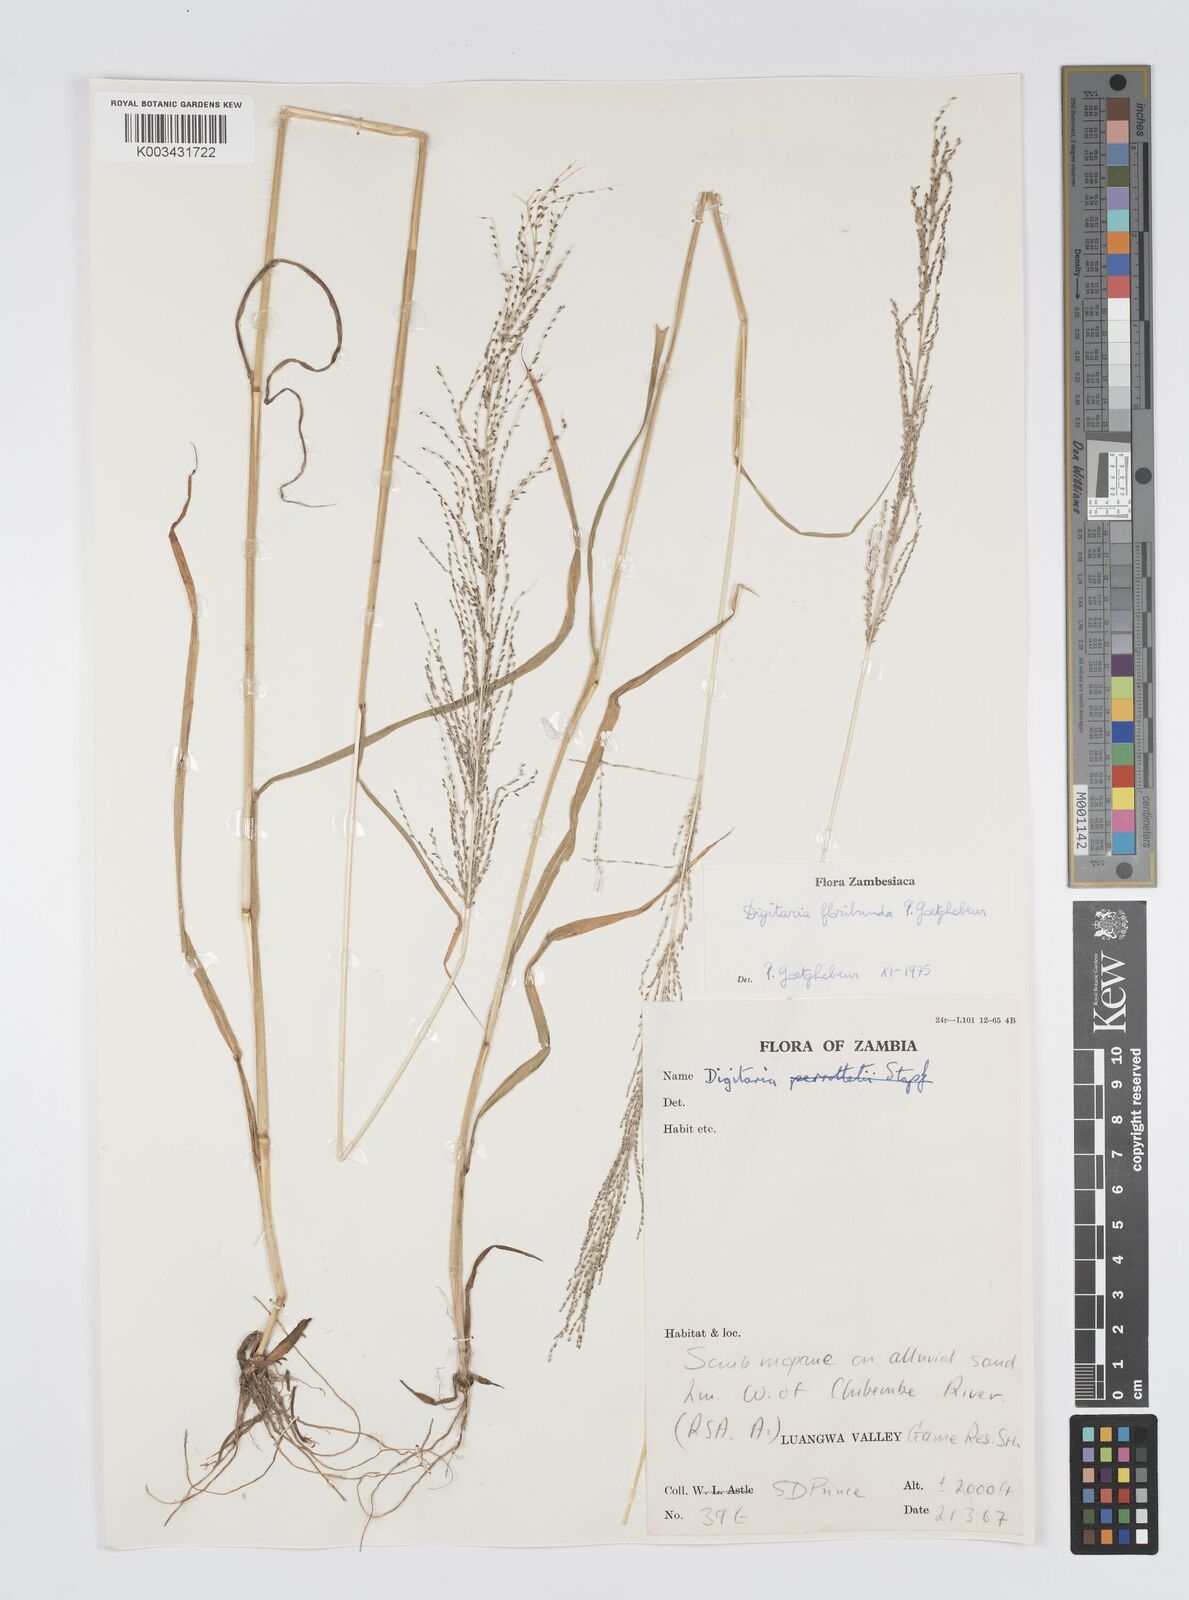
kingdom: Plantae
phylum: Tracheophyta
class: Liliopsida
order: Poales
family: Poaceae
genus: Digitaria
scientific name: Digitaria perrottetii
